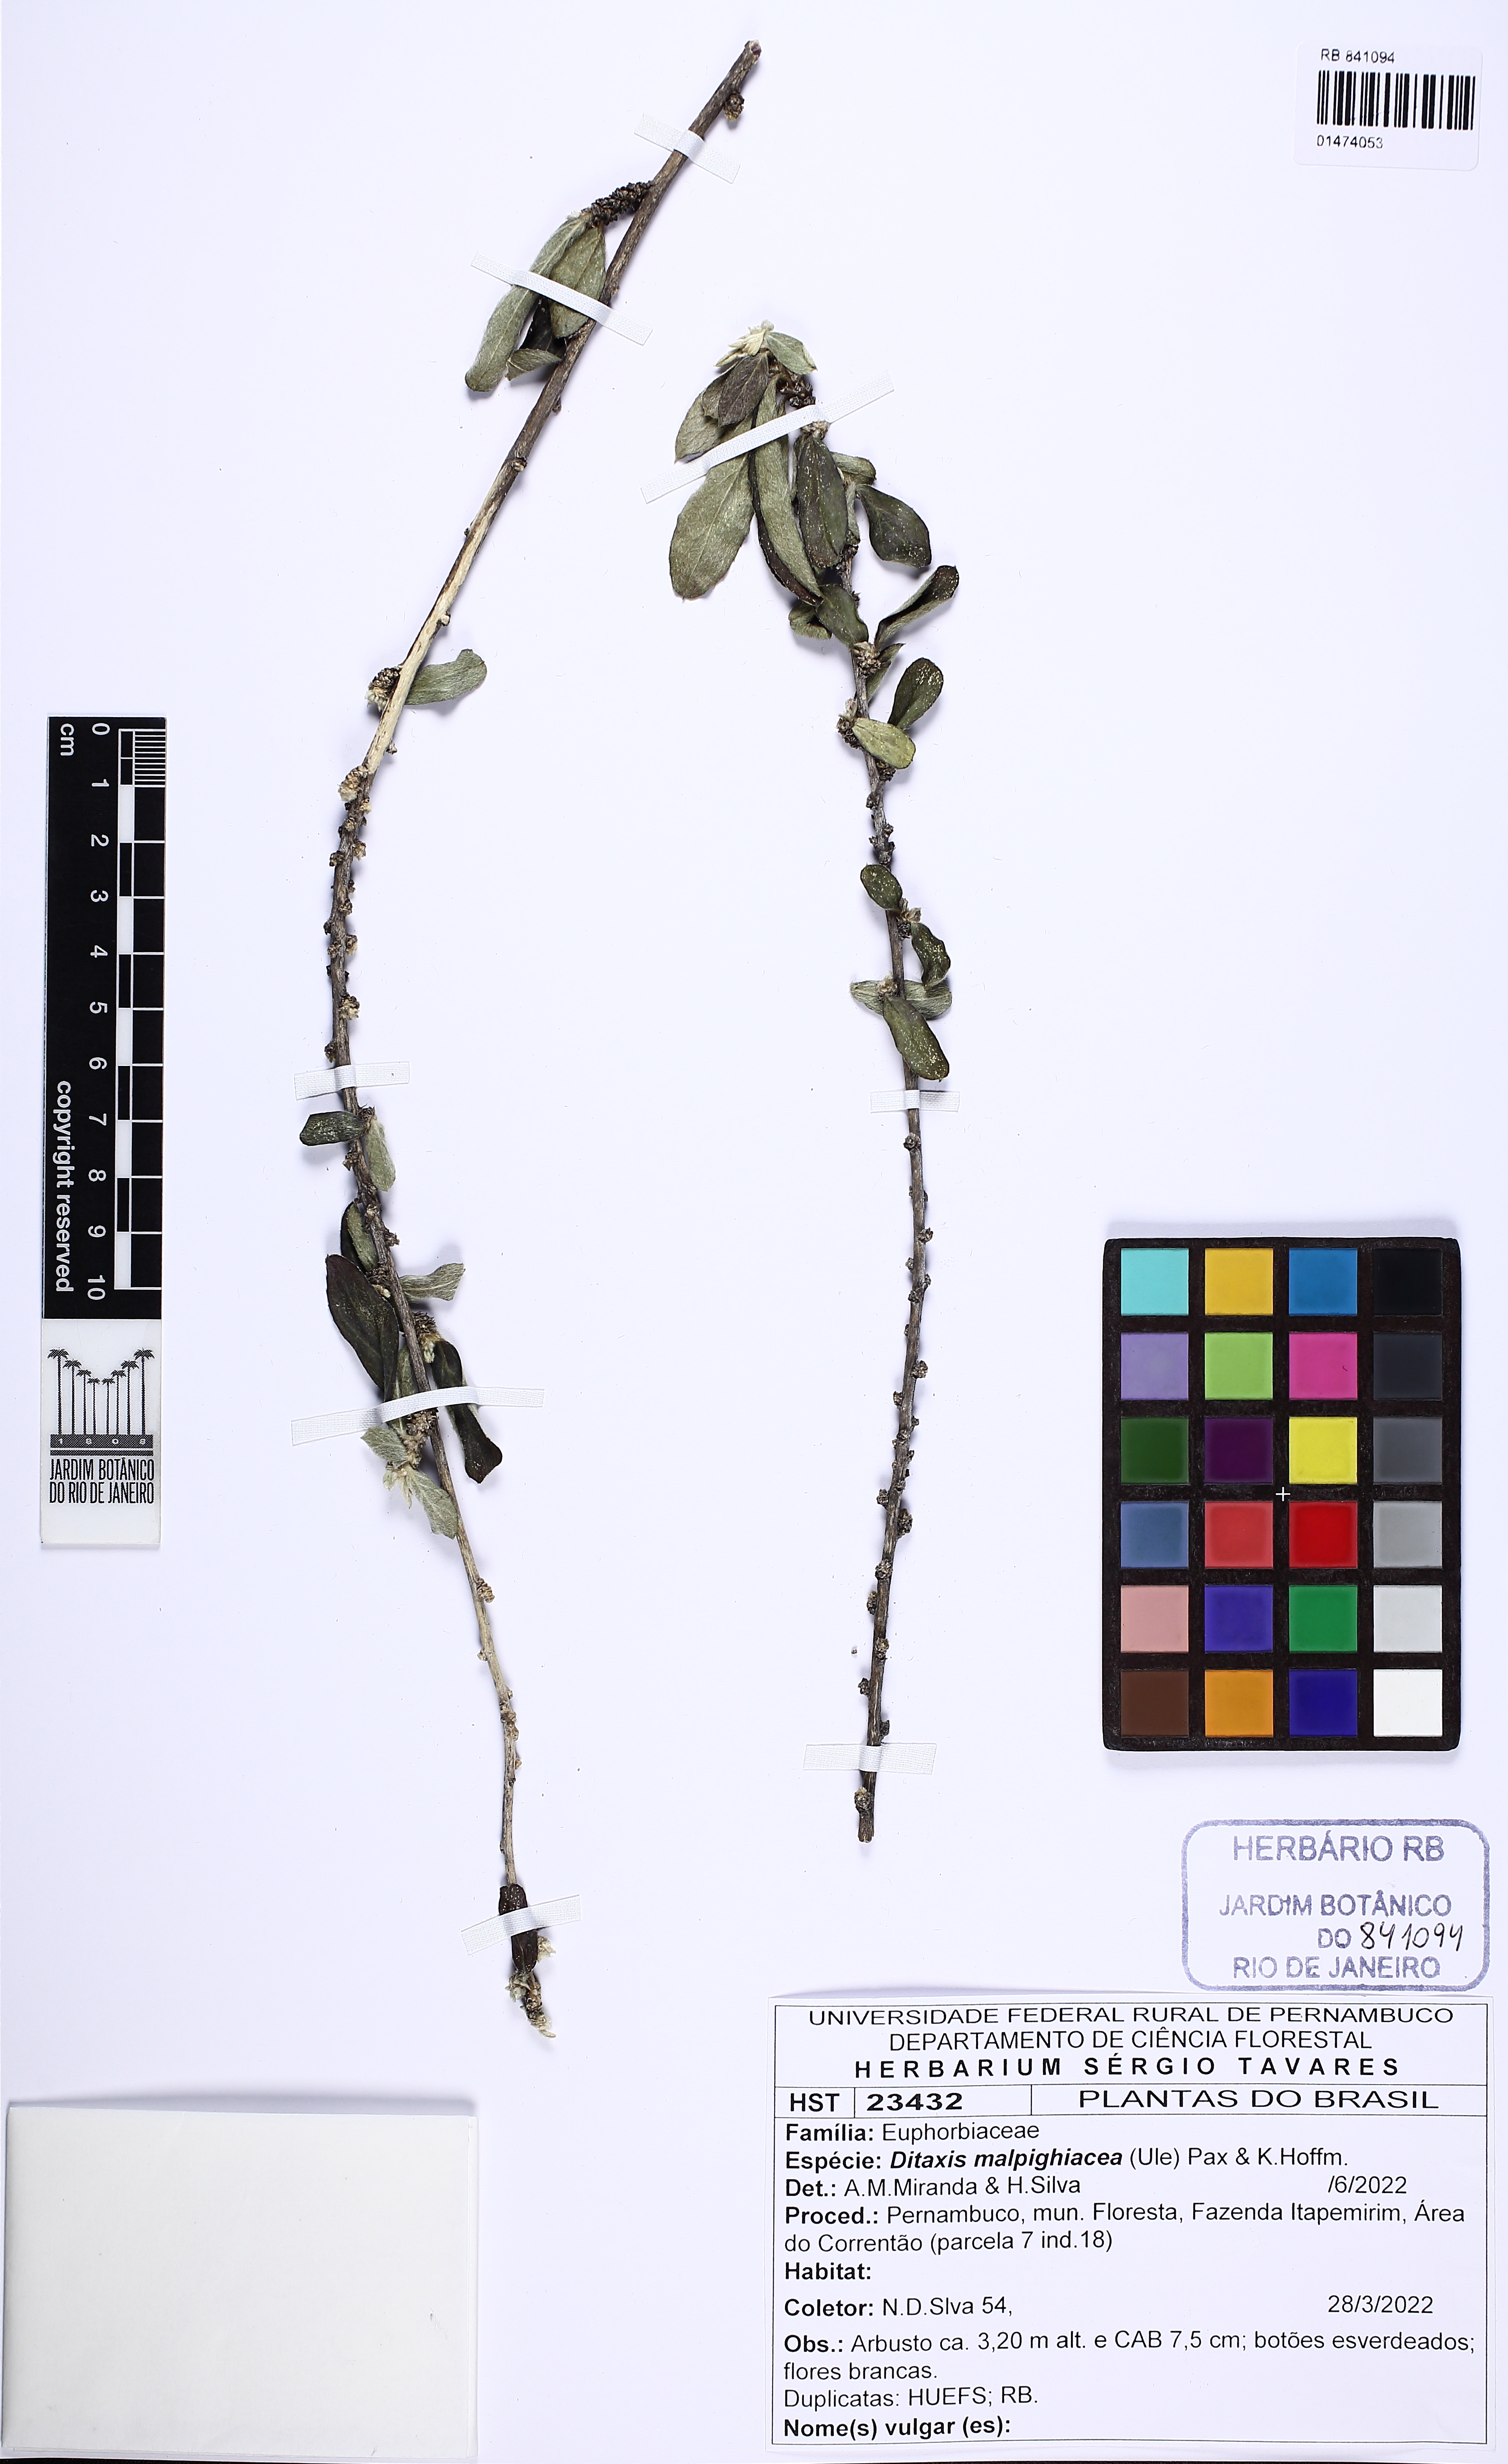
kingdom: Plantae
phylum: Tracheophyta
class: Magnoliopsida
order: Malpighiales
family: Euphorbiaceae
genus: Ditaxis
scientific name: Ditaxis malpighiacea
